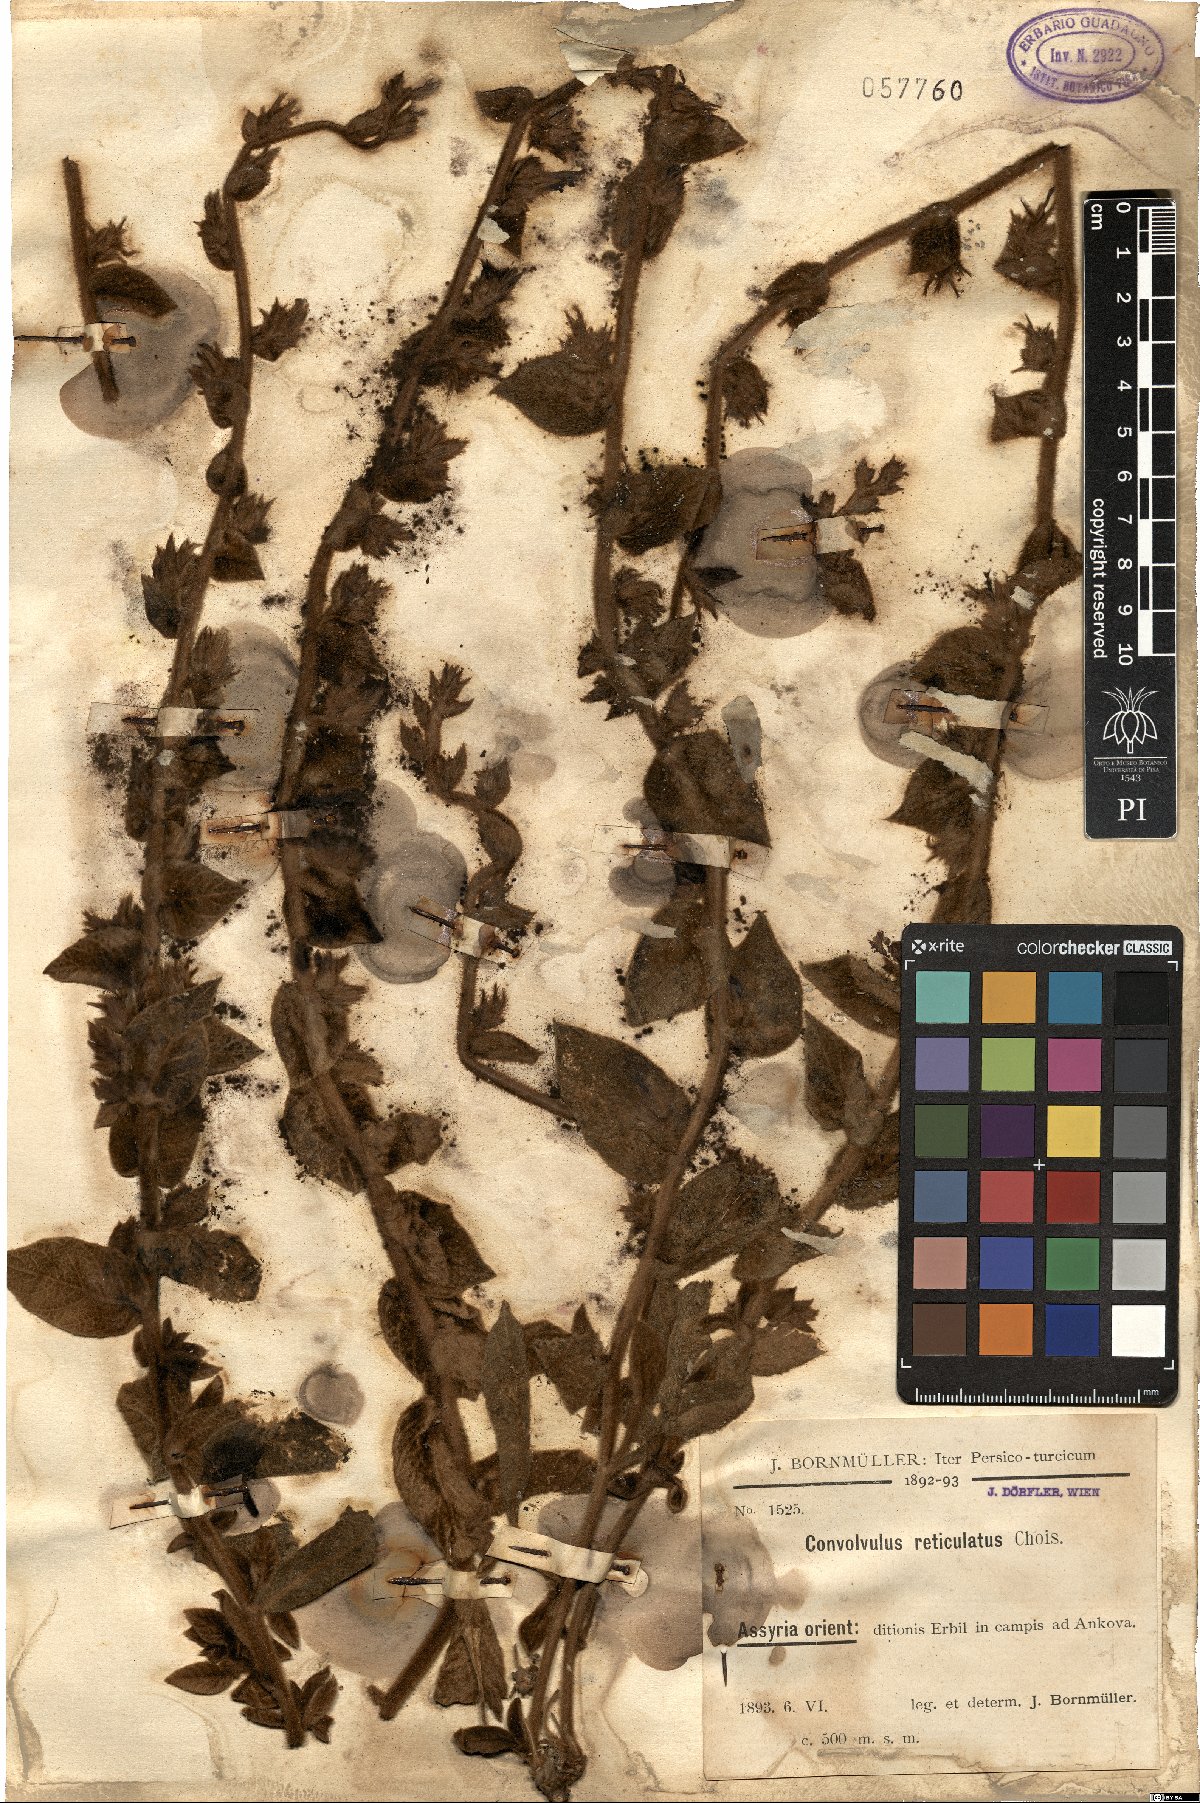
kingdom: Plantae
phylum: Tracheophyta
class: Magnoliopsida
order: Solanales
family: Convolvulaceae
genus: Convolvulus
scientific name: Convolvulus reticulatus
